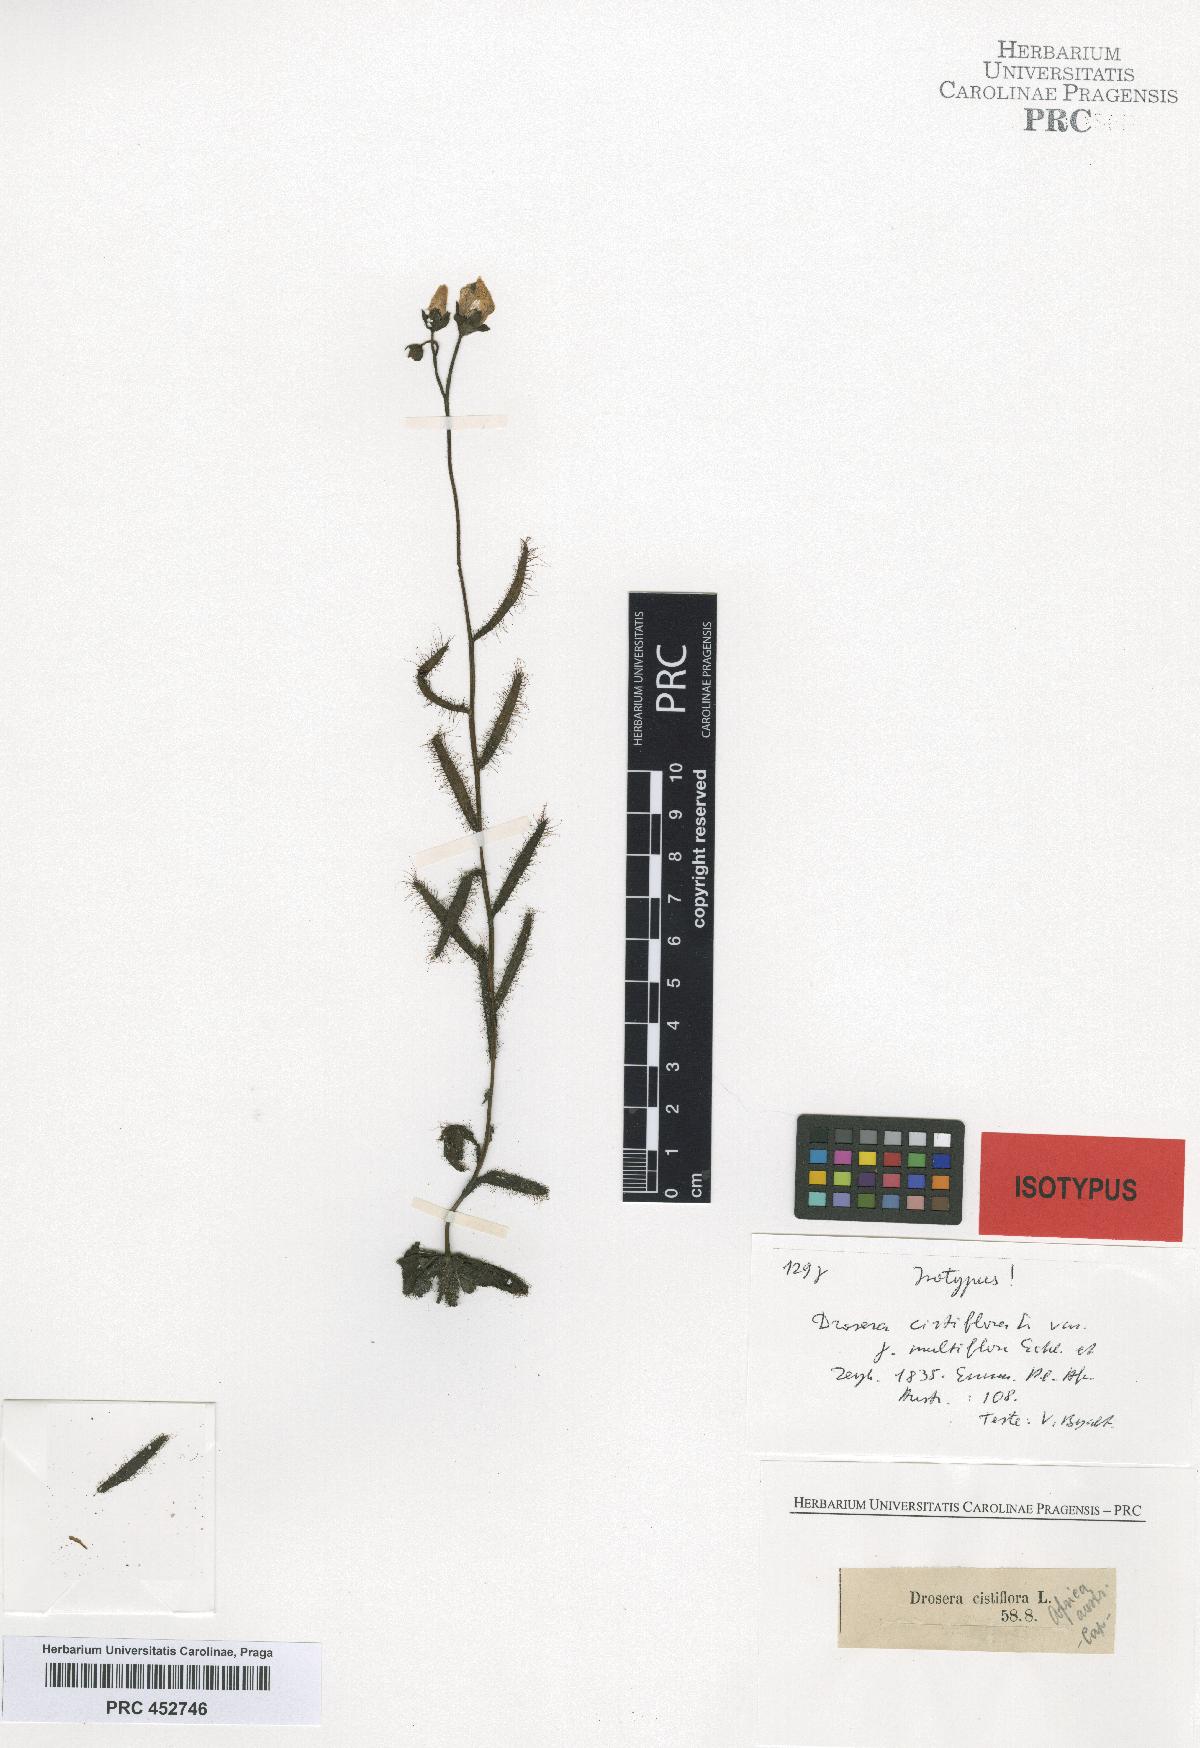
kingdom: Plantae
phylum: Tracheophyta
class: Magnoliopsida
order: Caryophyllales
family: Droseraceae
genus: Drosera
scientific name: Drosera cistiflora
